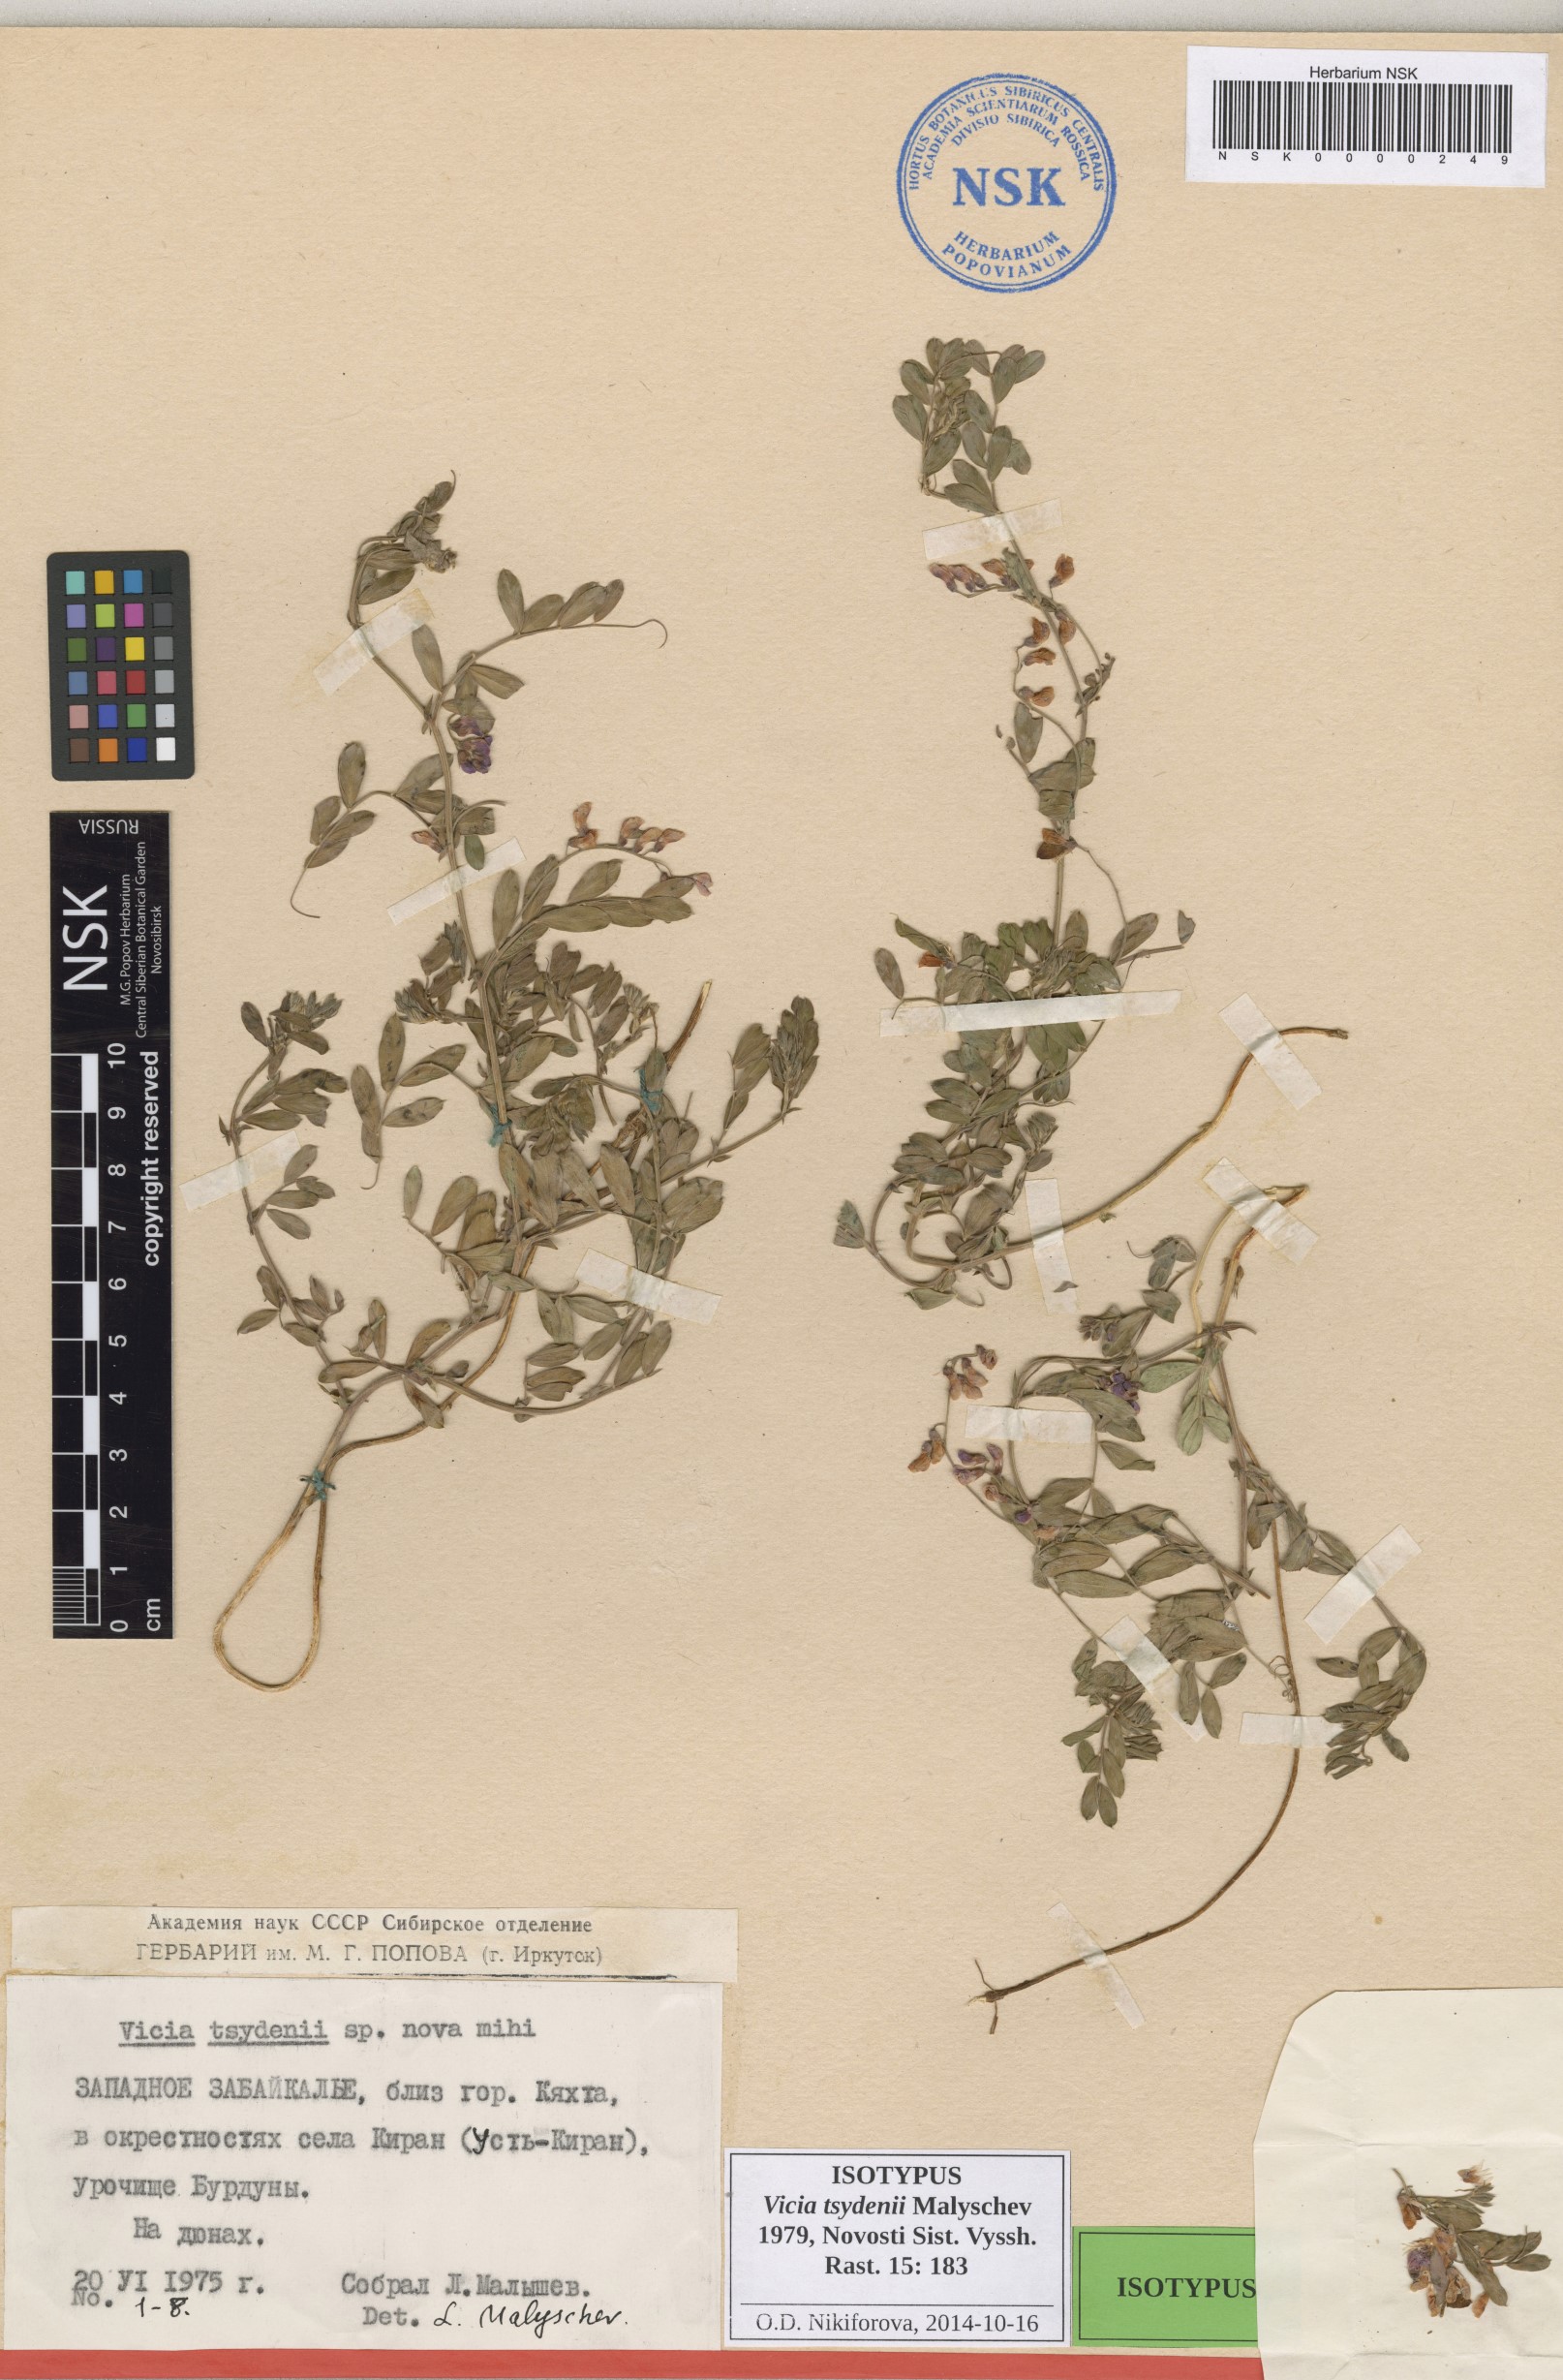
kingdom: Plantae
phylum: Tracheophyta
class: Magnoliopsida
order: Fabales
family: Fabaceae
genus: Vicia
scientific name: Vicia tsydenii
